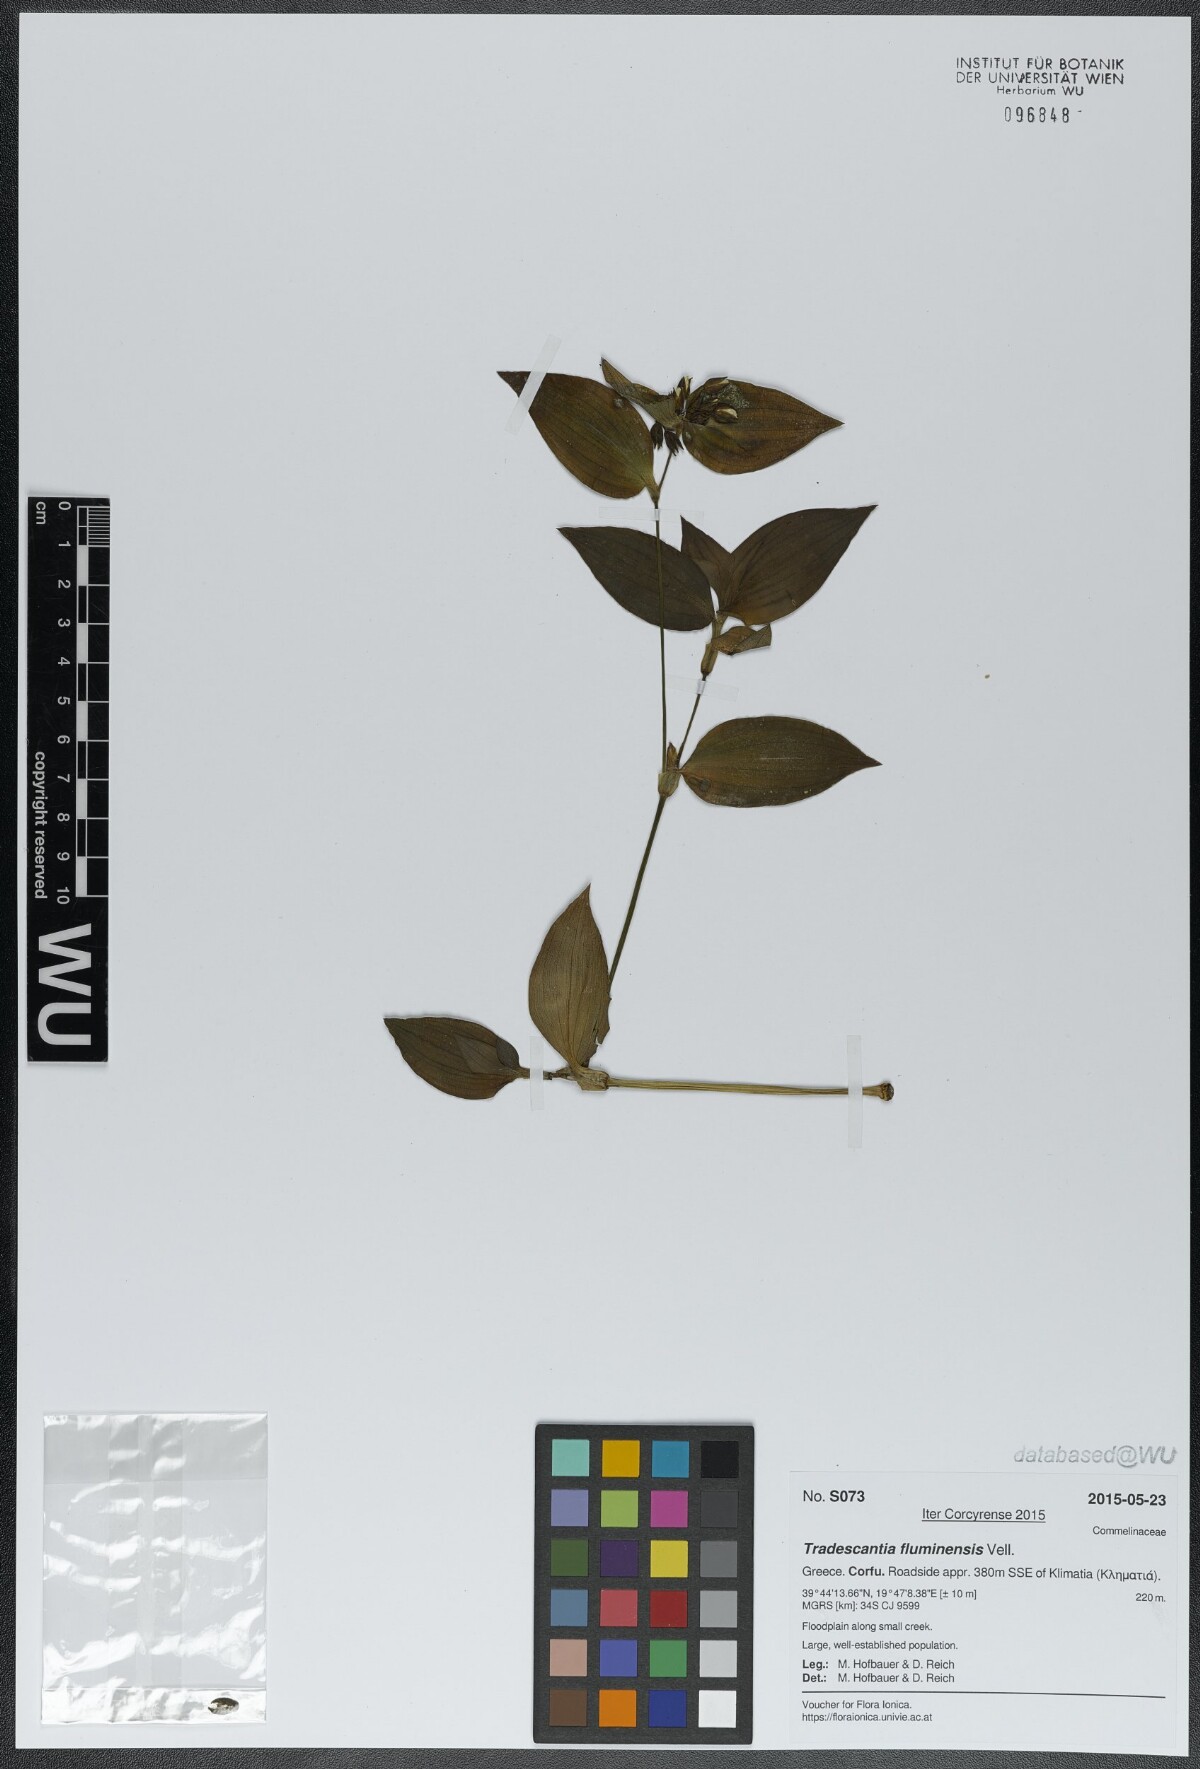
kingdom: Plantae
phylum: Tracheophyta
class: Liliopsida
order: Commelinales
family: Commelinaceae
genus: Tradescantia
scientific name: Tradescantia fluminensis
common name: Wandering-jew
